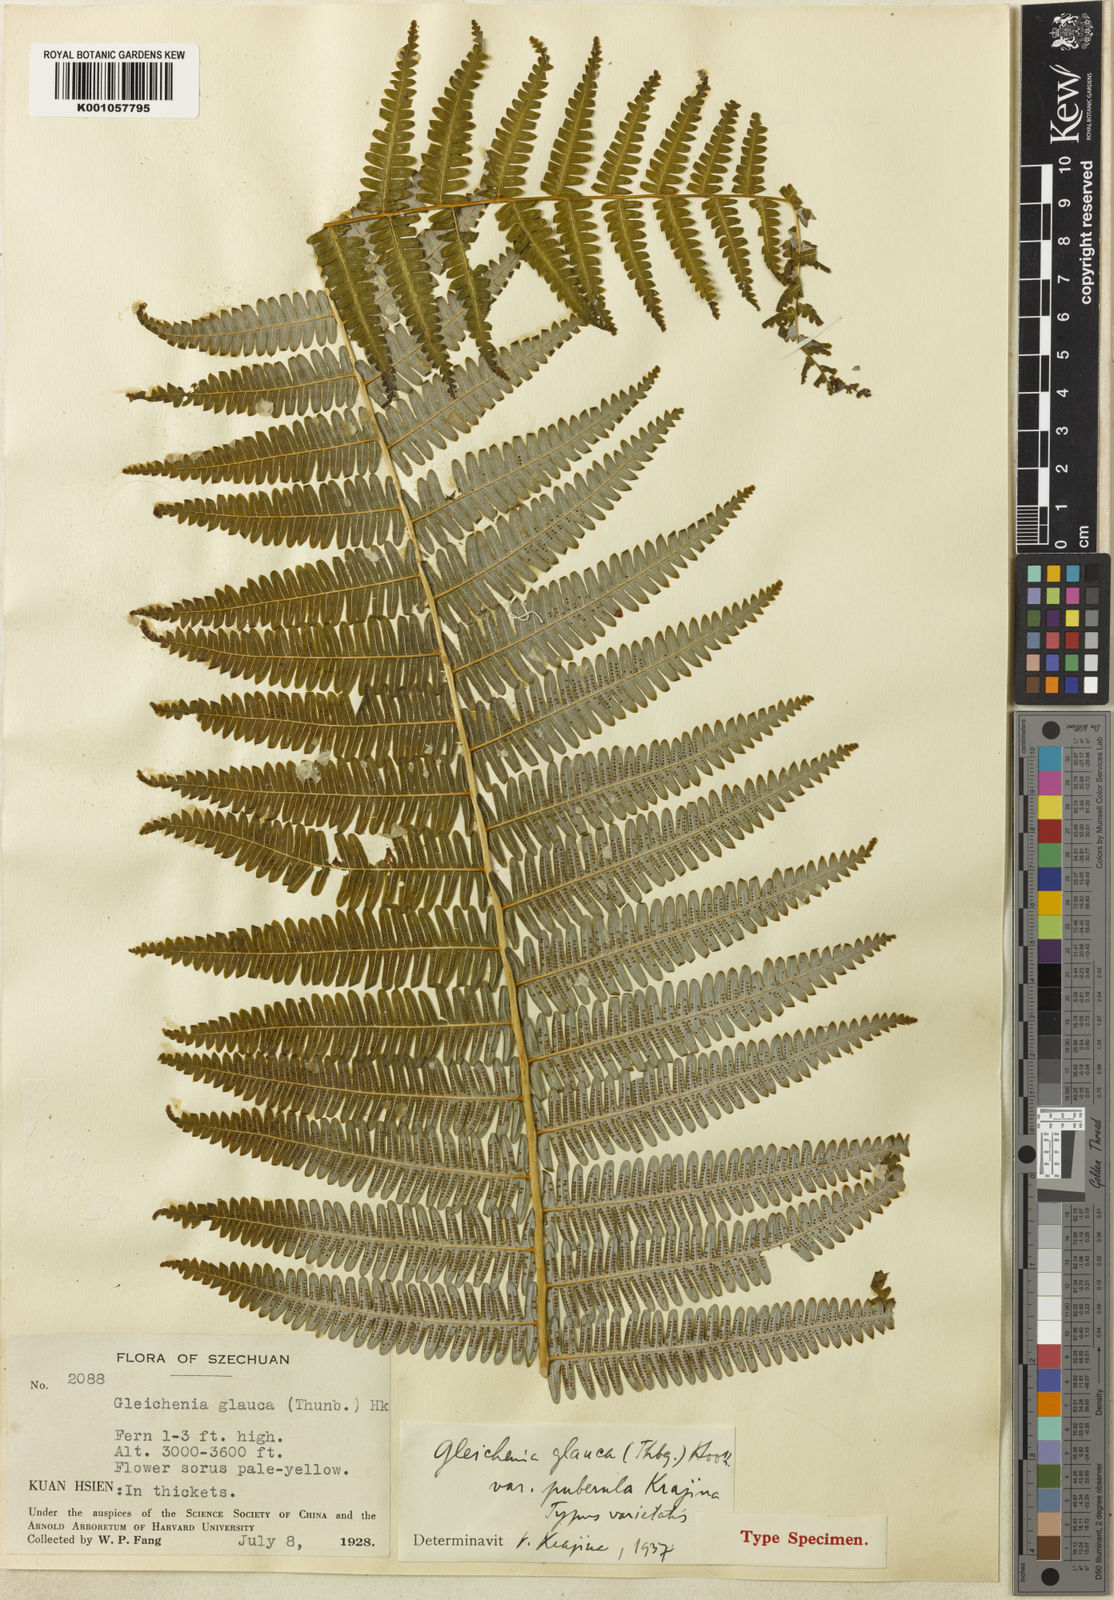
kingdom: Plantae
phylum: Tracheophyta
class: Polypodiopsida
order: Gleicheniales
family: Gleicheniaceae
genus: Diplopterygium
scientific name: Diplopterygium glaucum
